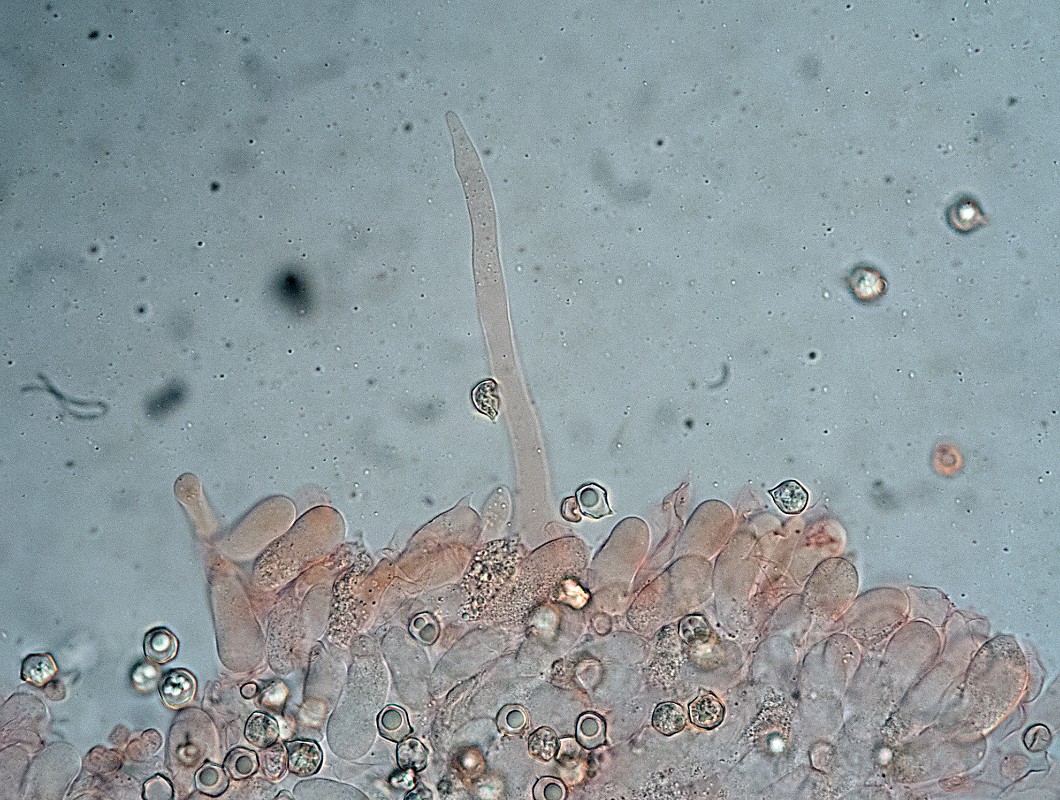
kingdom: Fungi
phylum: Basidiomycota
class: Agaricomycetes
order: Agaricales
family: Entolomataceae
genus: Entoloma
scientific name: Entoloma minutum
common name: liden rødblad
